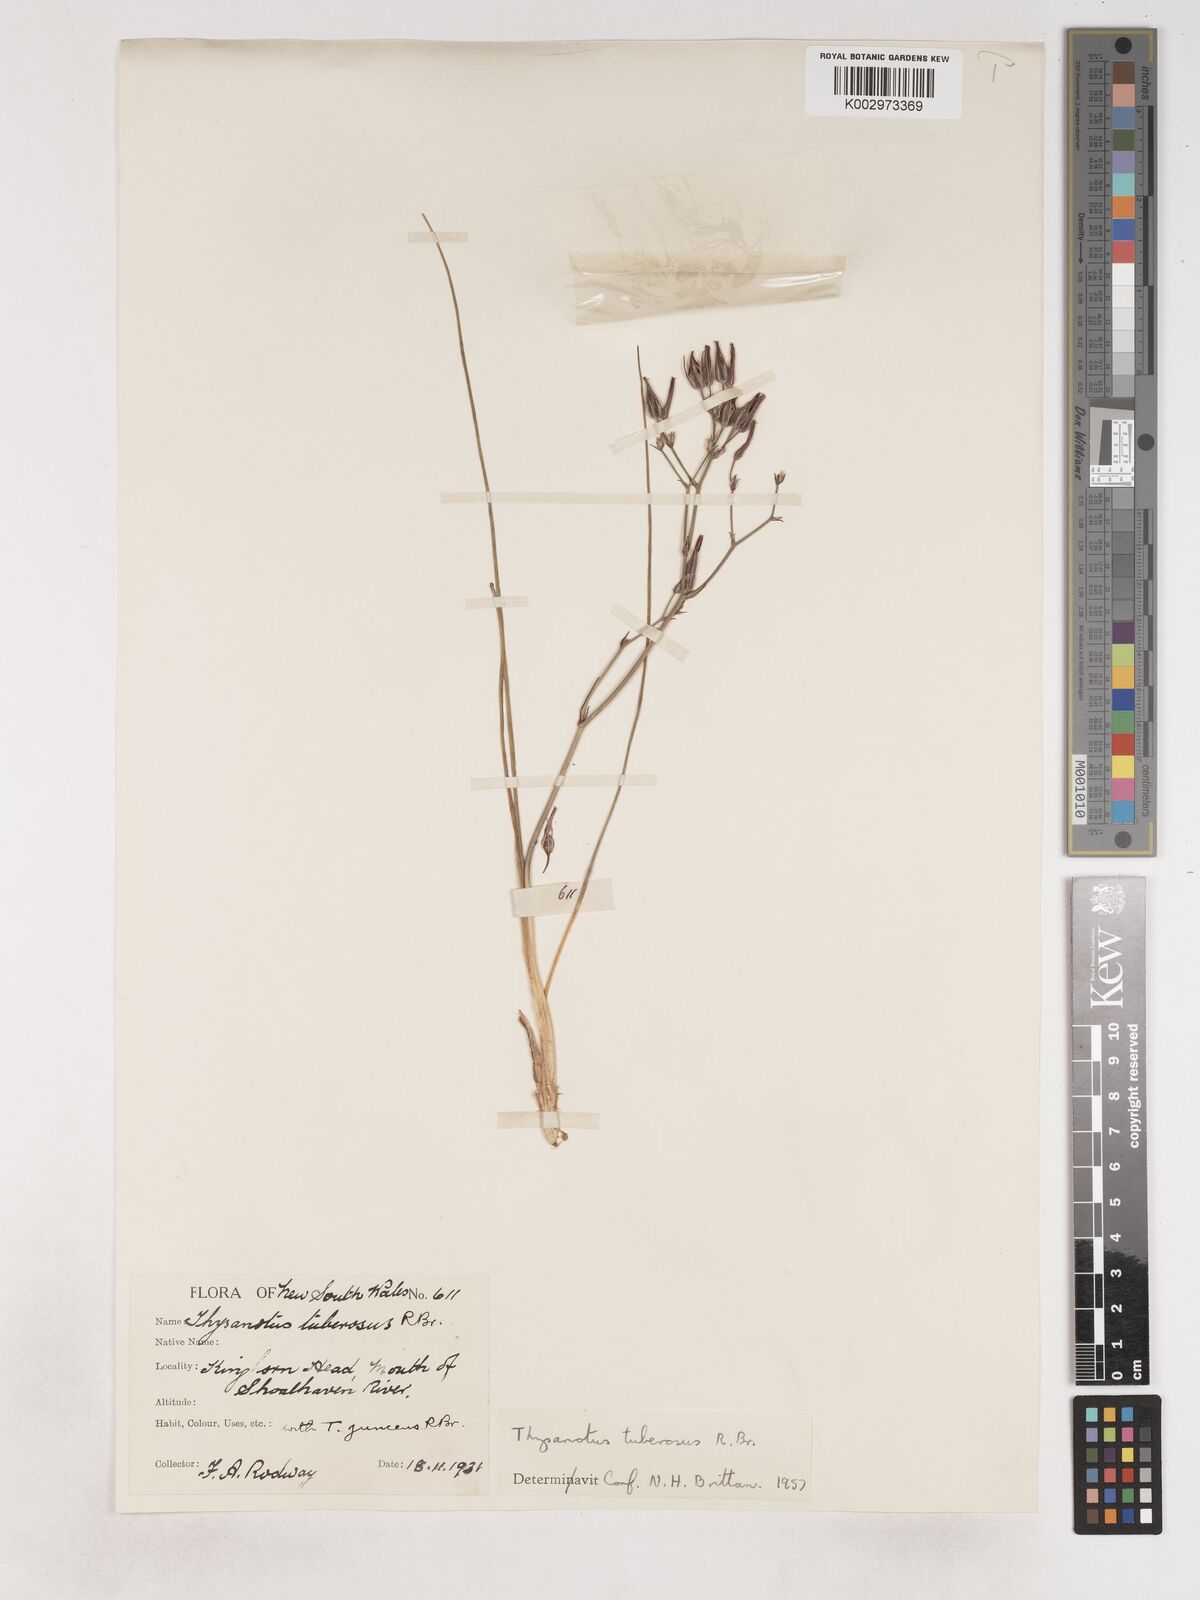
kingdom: Plantae
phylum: Tracheophyta
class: Liliopsida
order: Asparagales
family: Asparagaceae
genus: Thysanotus
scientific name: Thysanotus tuberosus
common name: Common fringed-lily
